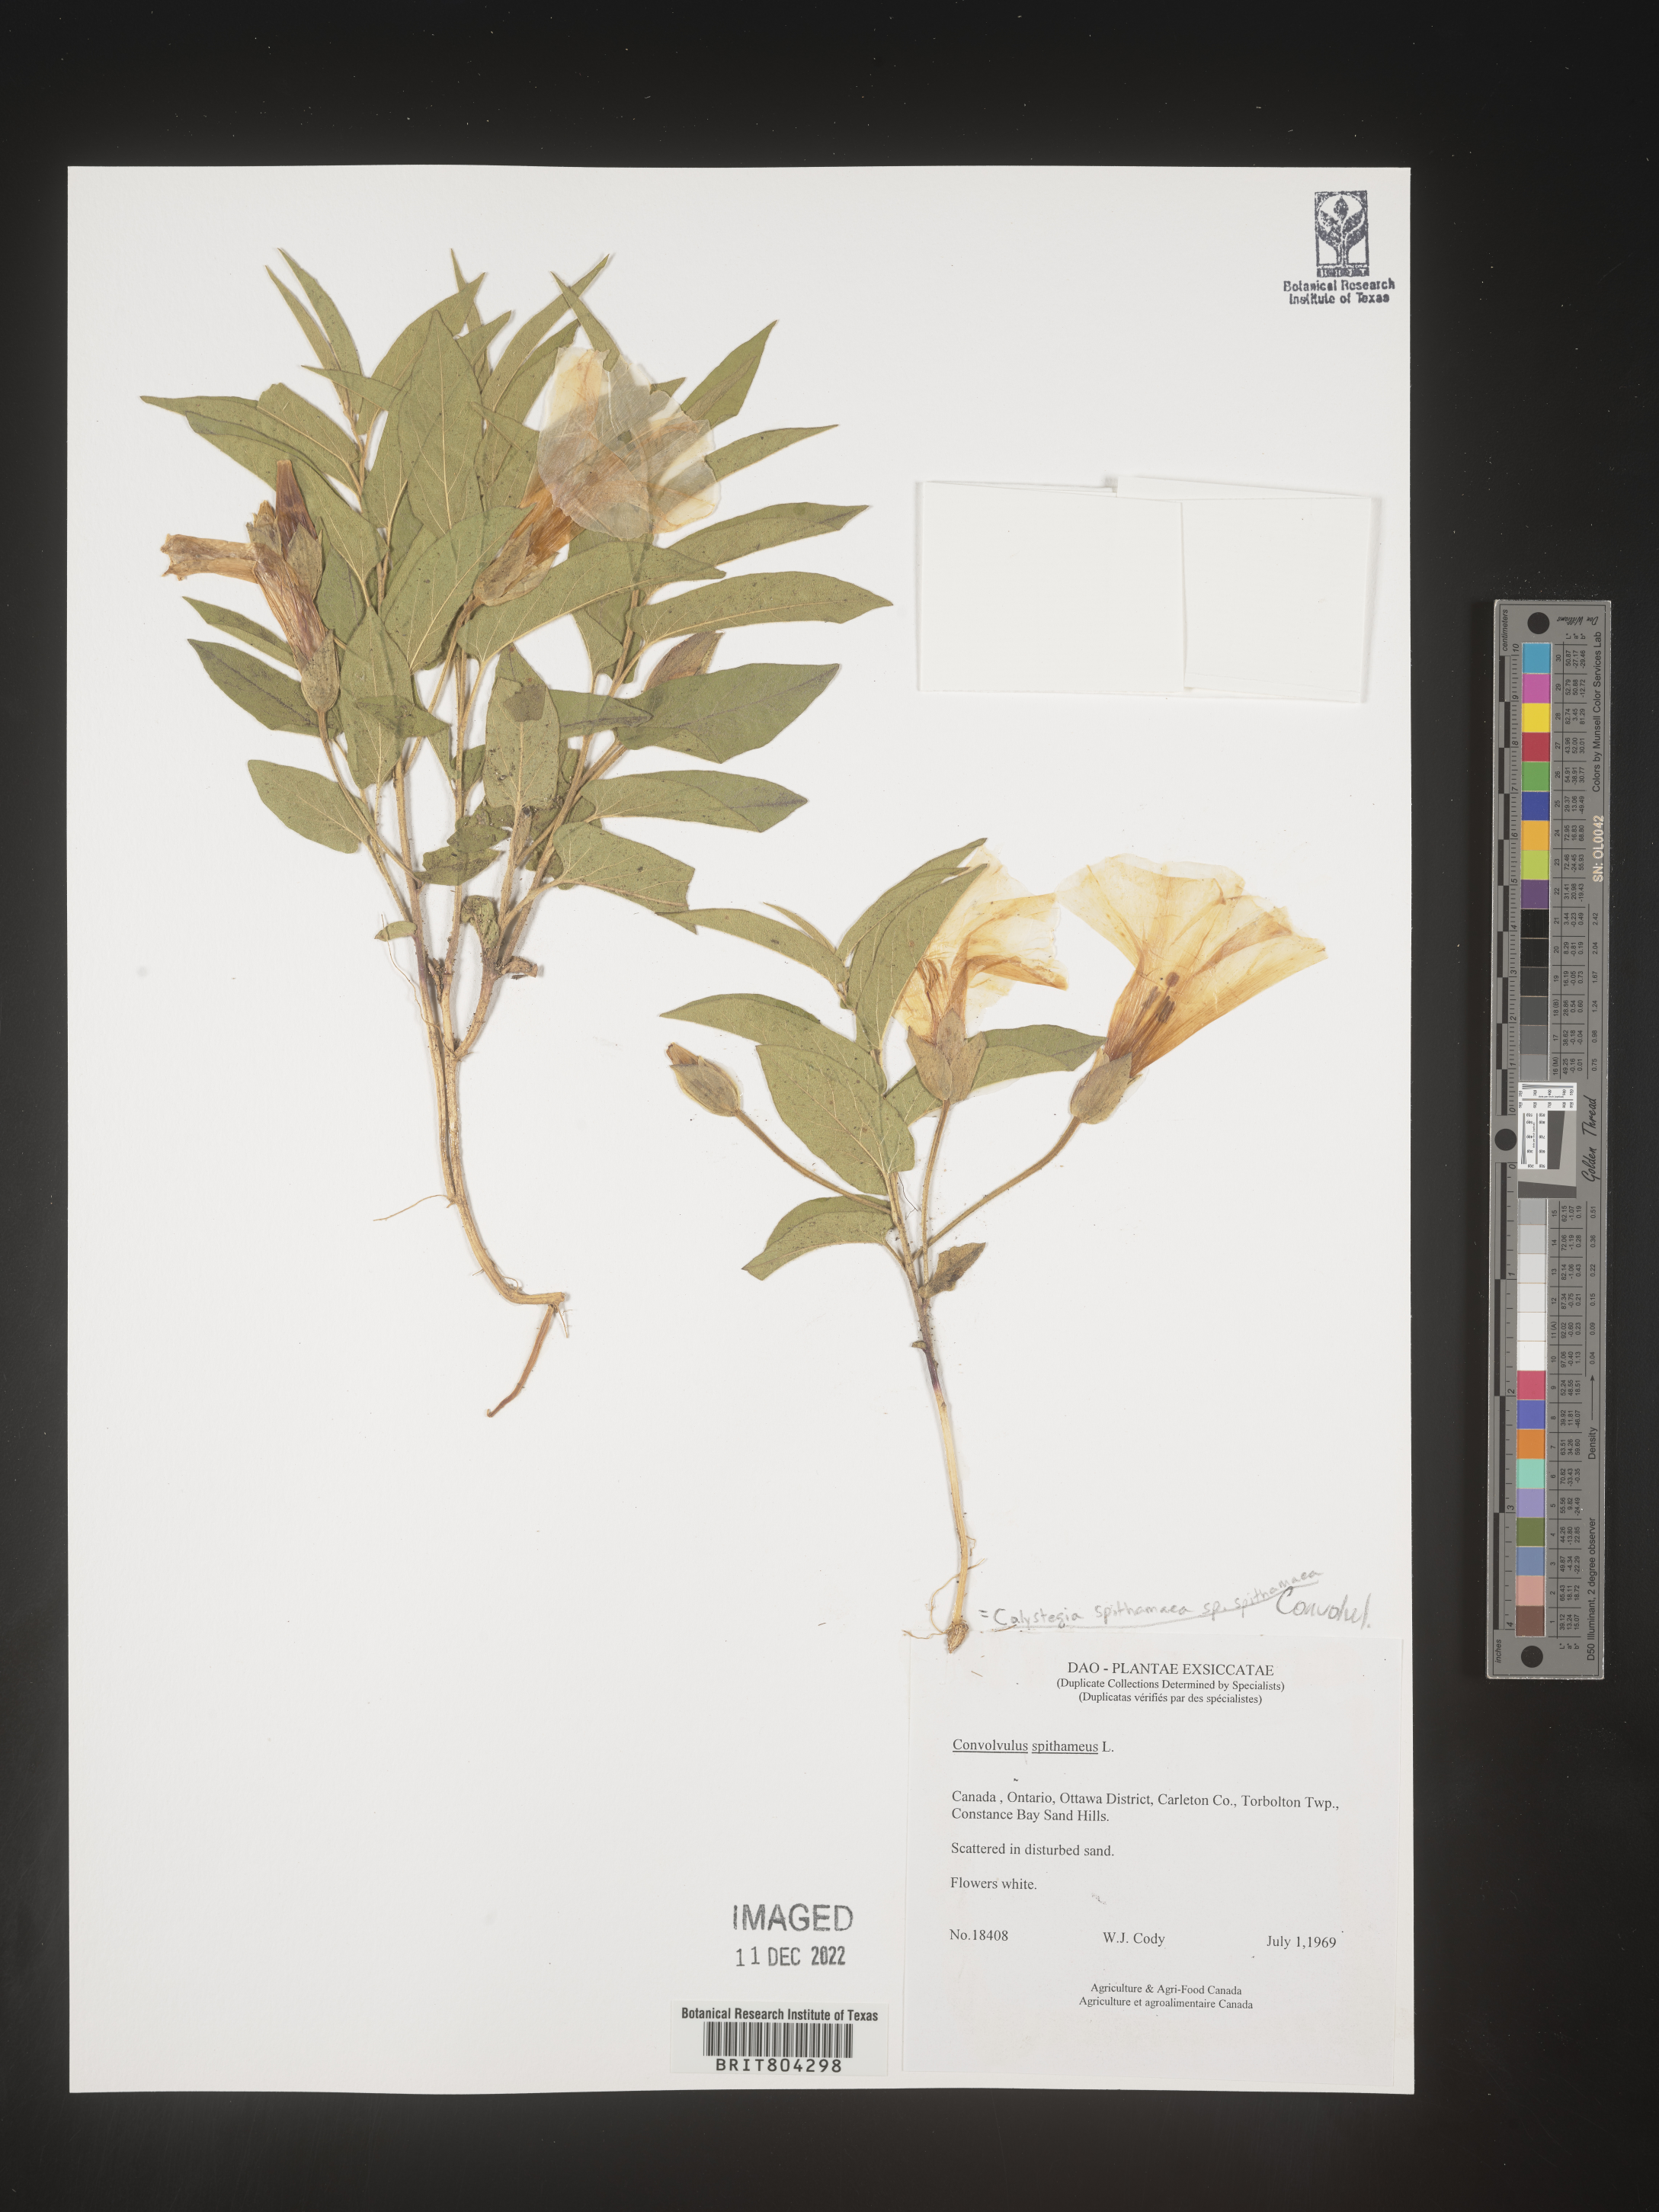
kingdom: Plantae
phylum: Tracheophyta
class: Magnoliopsida
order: Solanales
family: Convolvulaceae
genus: Calystegia
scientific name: Calystegia
